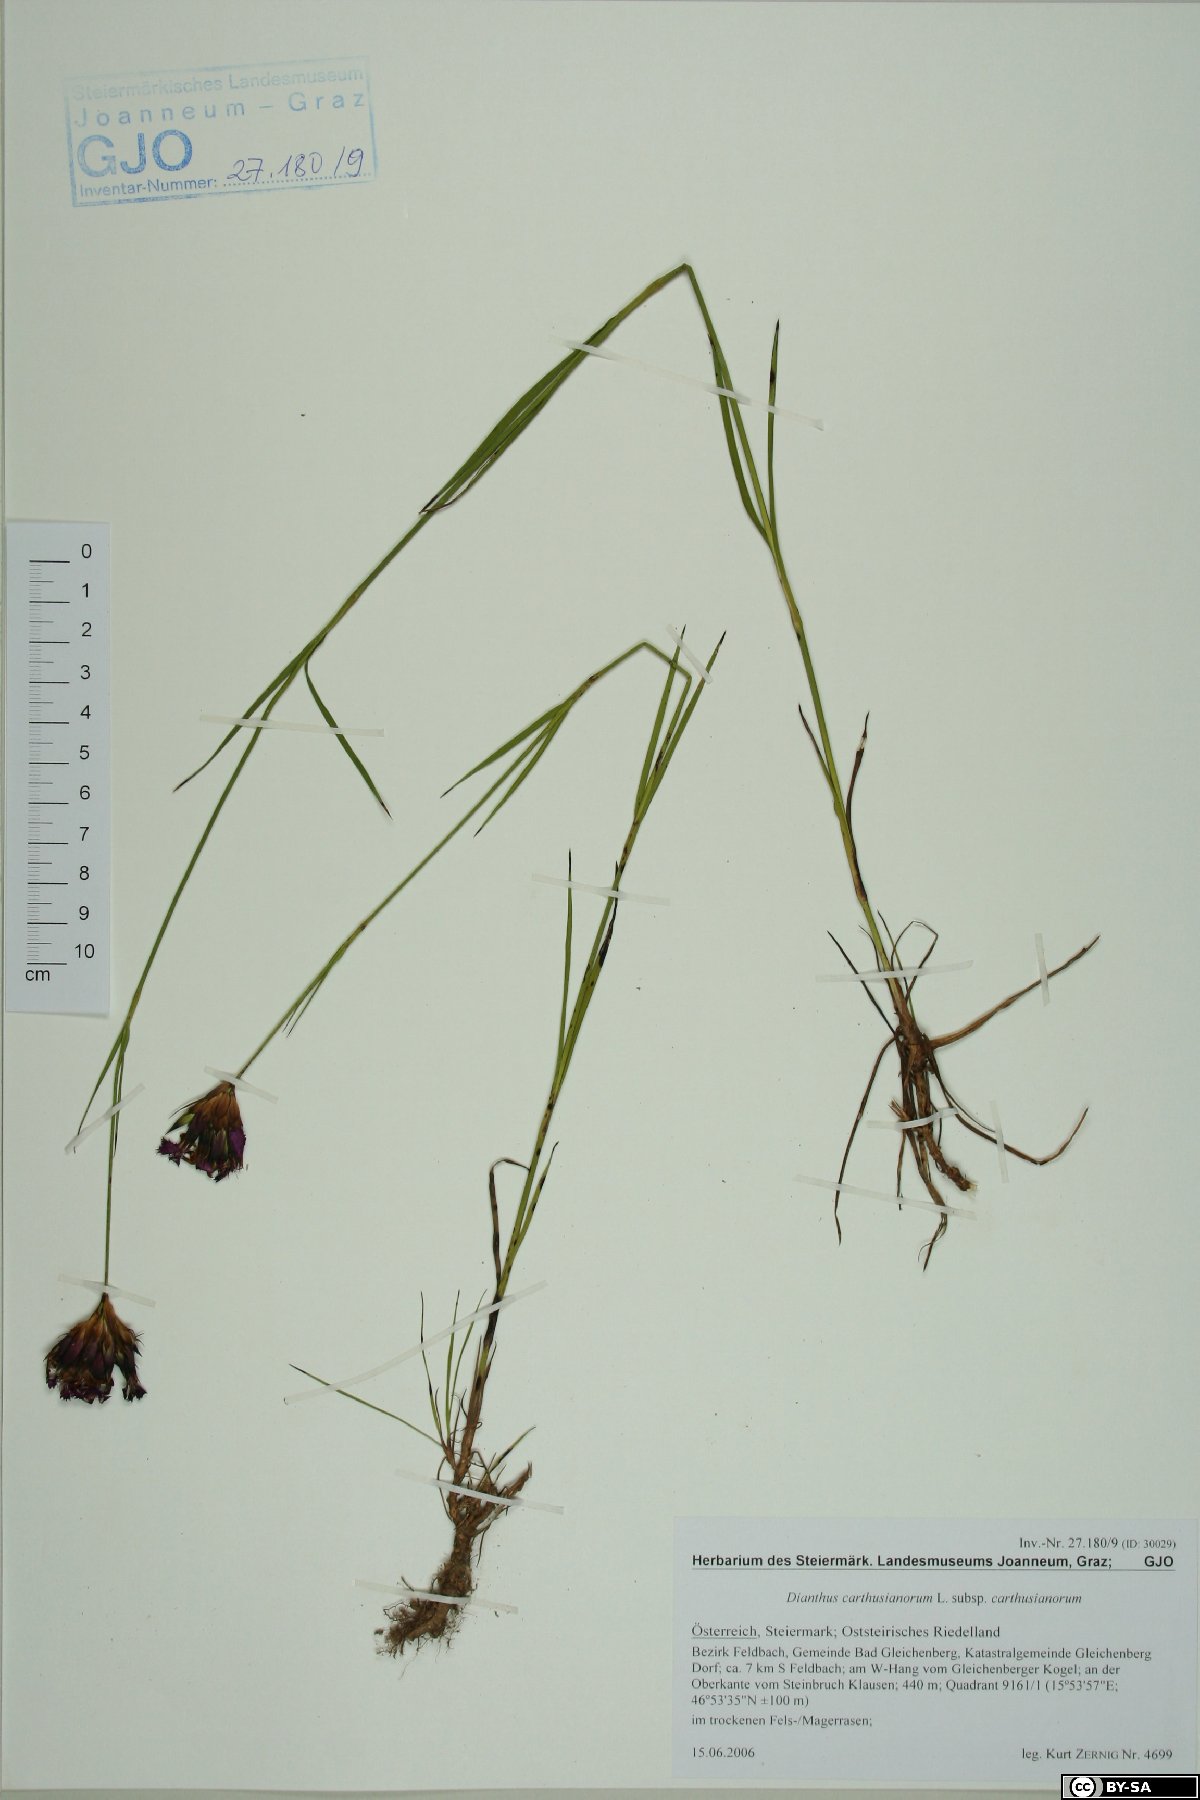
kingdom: Plantae
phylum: Tracheophyta
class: Magnoliopsida
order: Caryophyllales
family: Caryophyllaceae
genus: Dianthus
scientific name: Dianthus carthusianorum
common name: Carthusian pink
